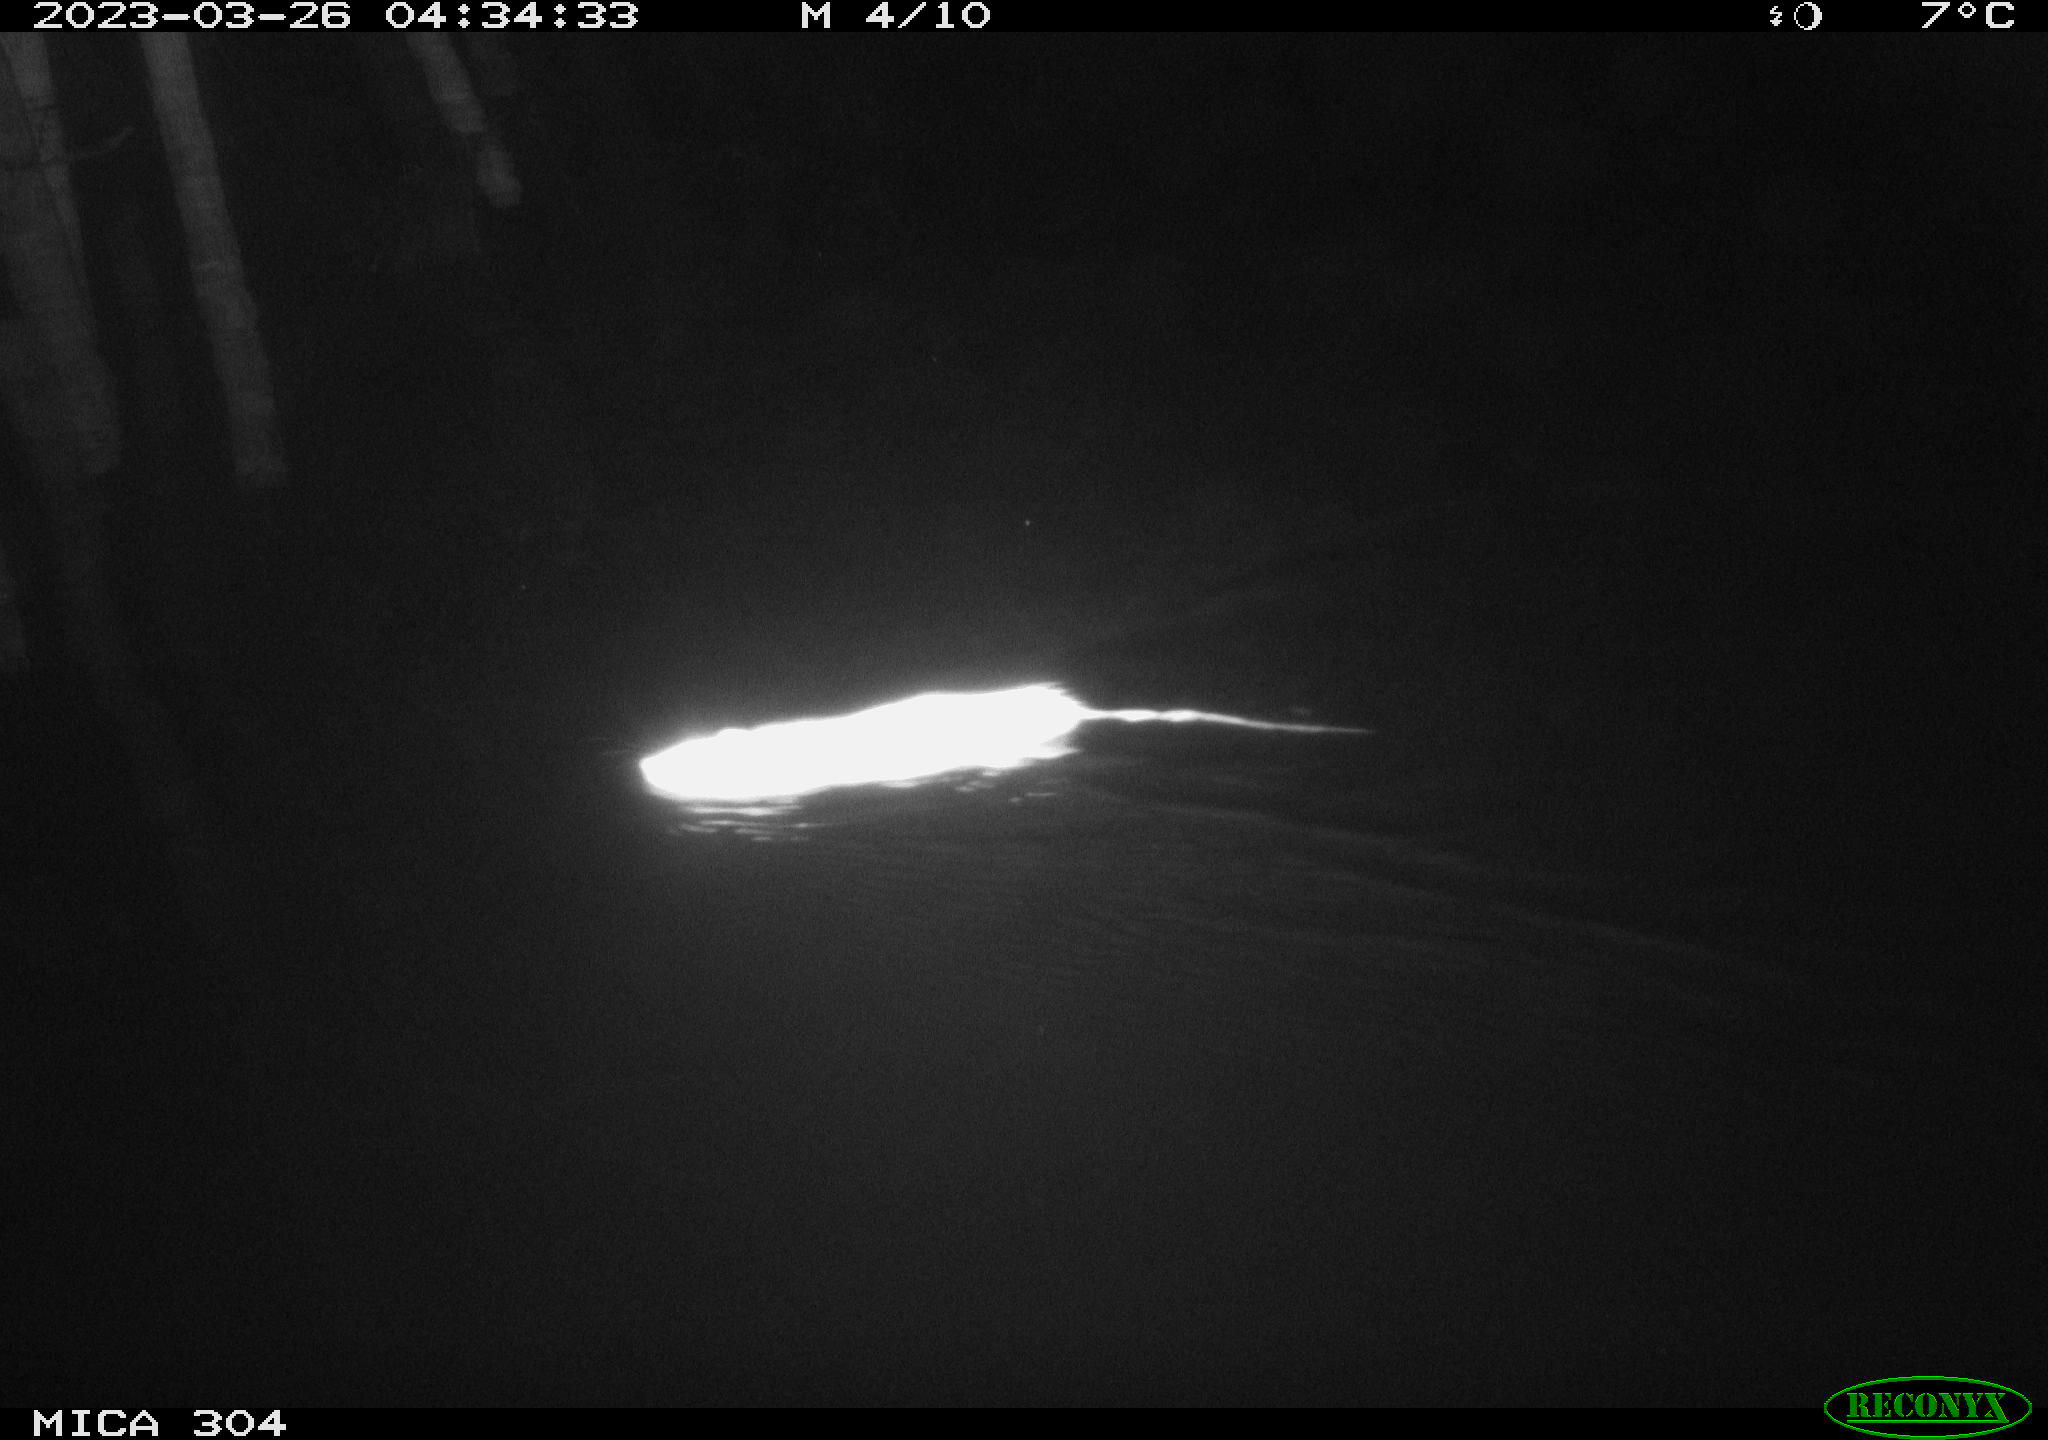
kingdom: Animalia
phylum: Chordata
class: Mammalia
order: Rodentia
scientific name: Rodentia
